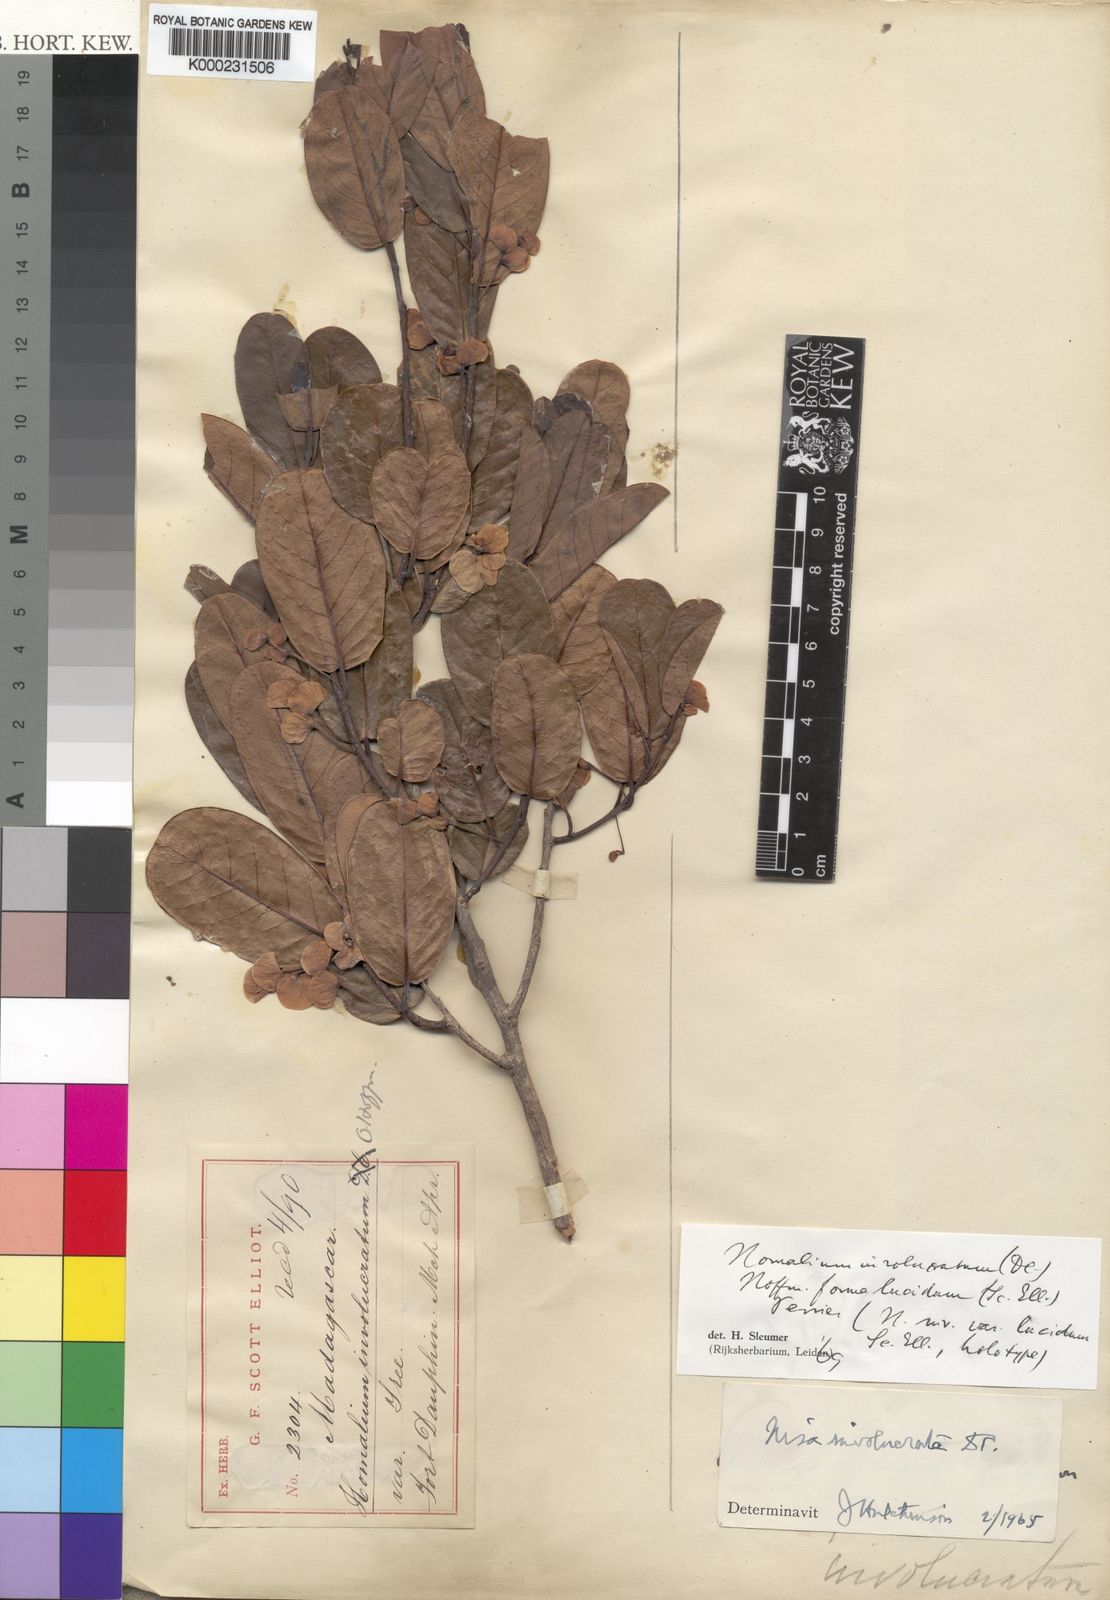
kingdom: Plantae
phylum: Tracheophyta
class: Magnoliopsida
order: Malpighiales
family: Salicaceae
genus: Homalium
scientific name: Homalium involucratum
